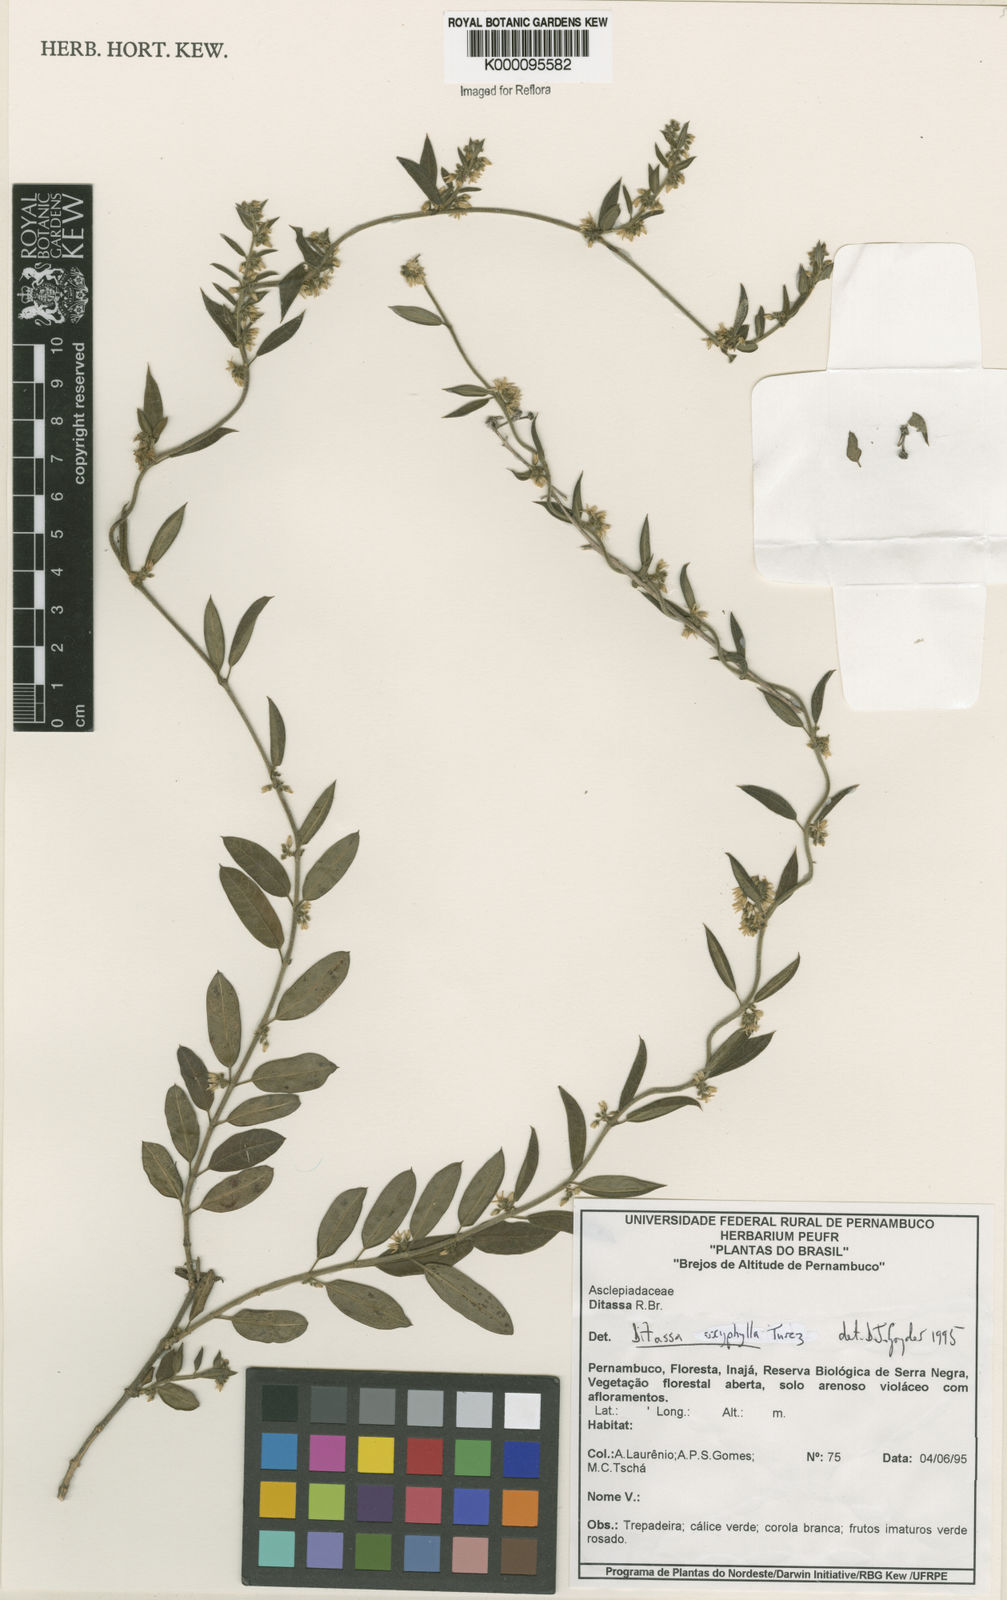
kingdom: Plantae
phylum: Tracheophyta
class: Magnoliopsida
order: Gentianales
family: Apocynaceae
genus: Ditassa
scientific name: Ditassa oxyphylla
